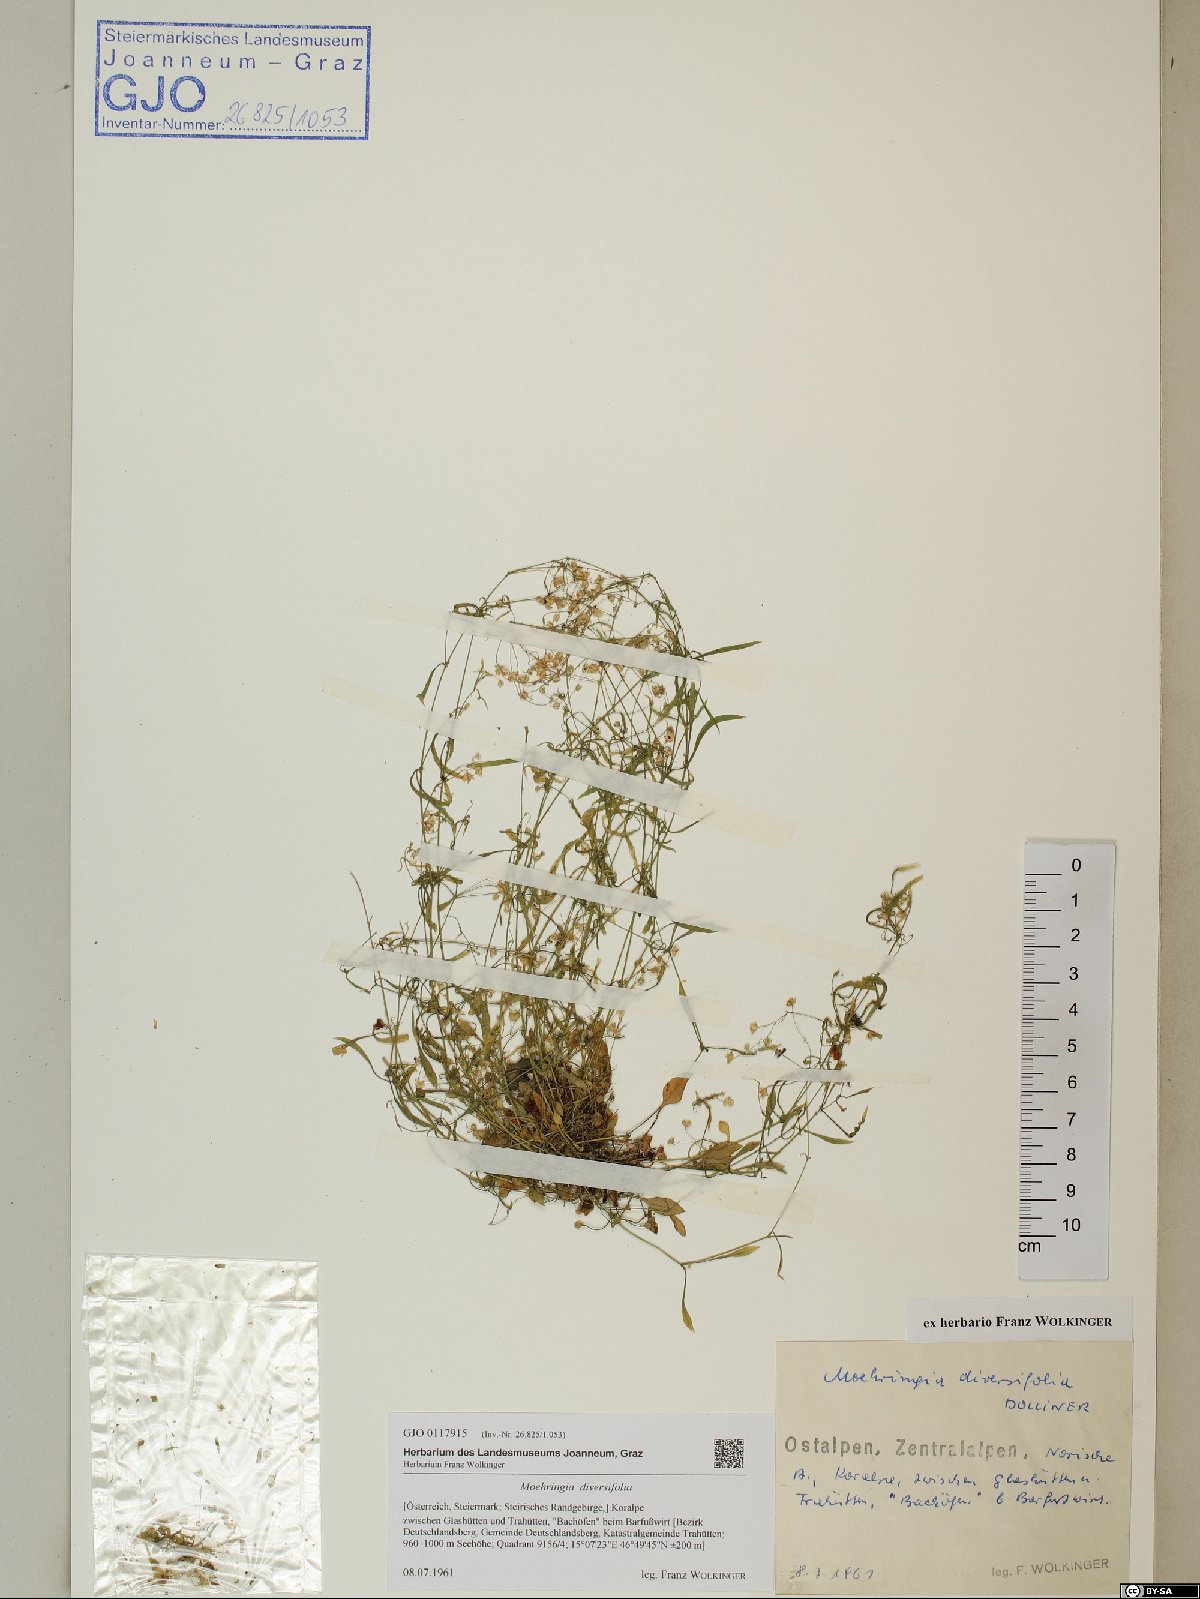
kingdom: Plantae
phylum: Tracheophyta
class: Magnoliopsida
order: Caryophyllales
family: Caryophyllaceae
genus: Moehringia
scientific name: Moehringia diversifolia
